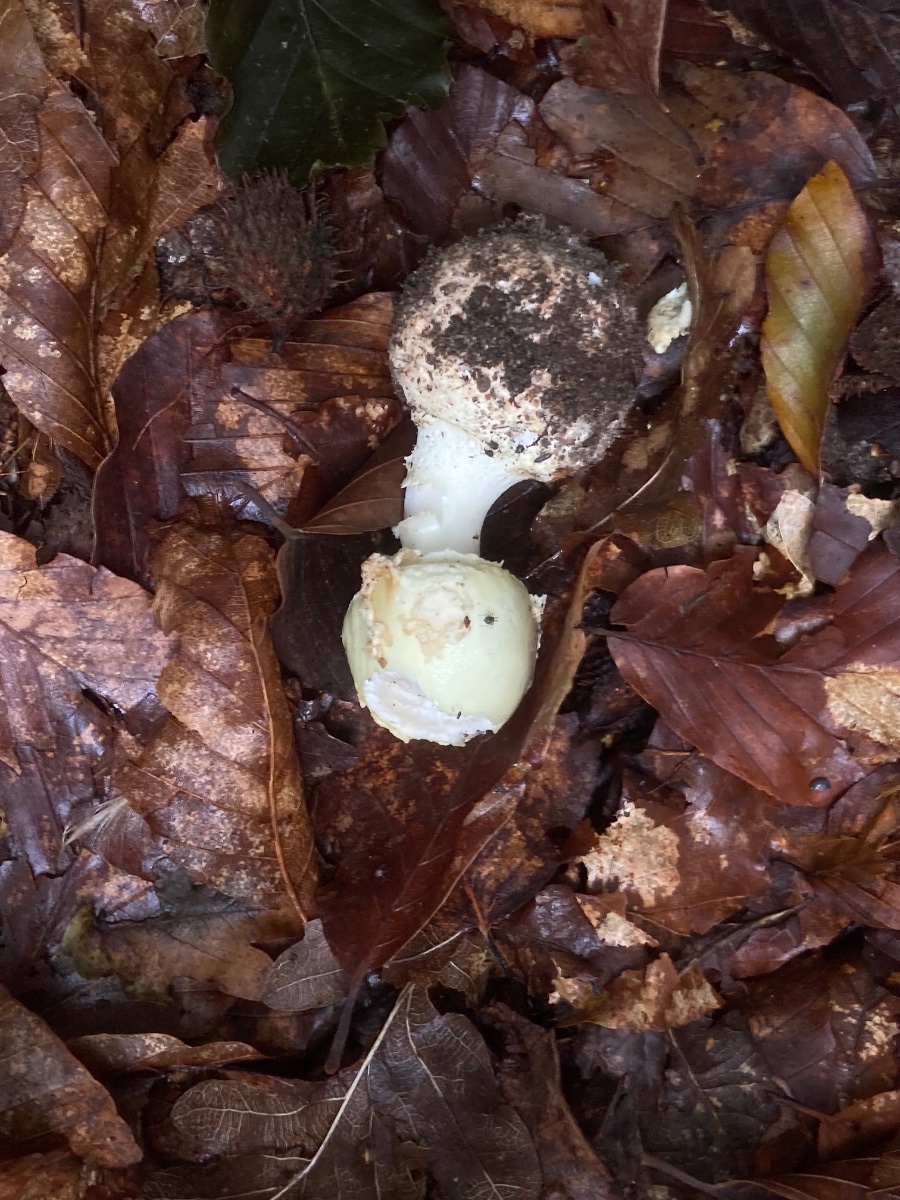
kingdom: Fungi
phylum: Basidiomycota
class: Agaricomycetes
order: Agaricales
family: Amanitaceae
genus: Amanita
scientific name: Amanita citrina
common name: kugleknoldet fluesvamp
